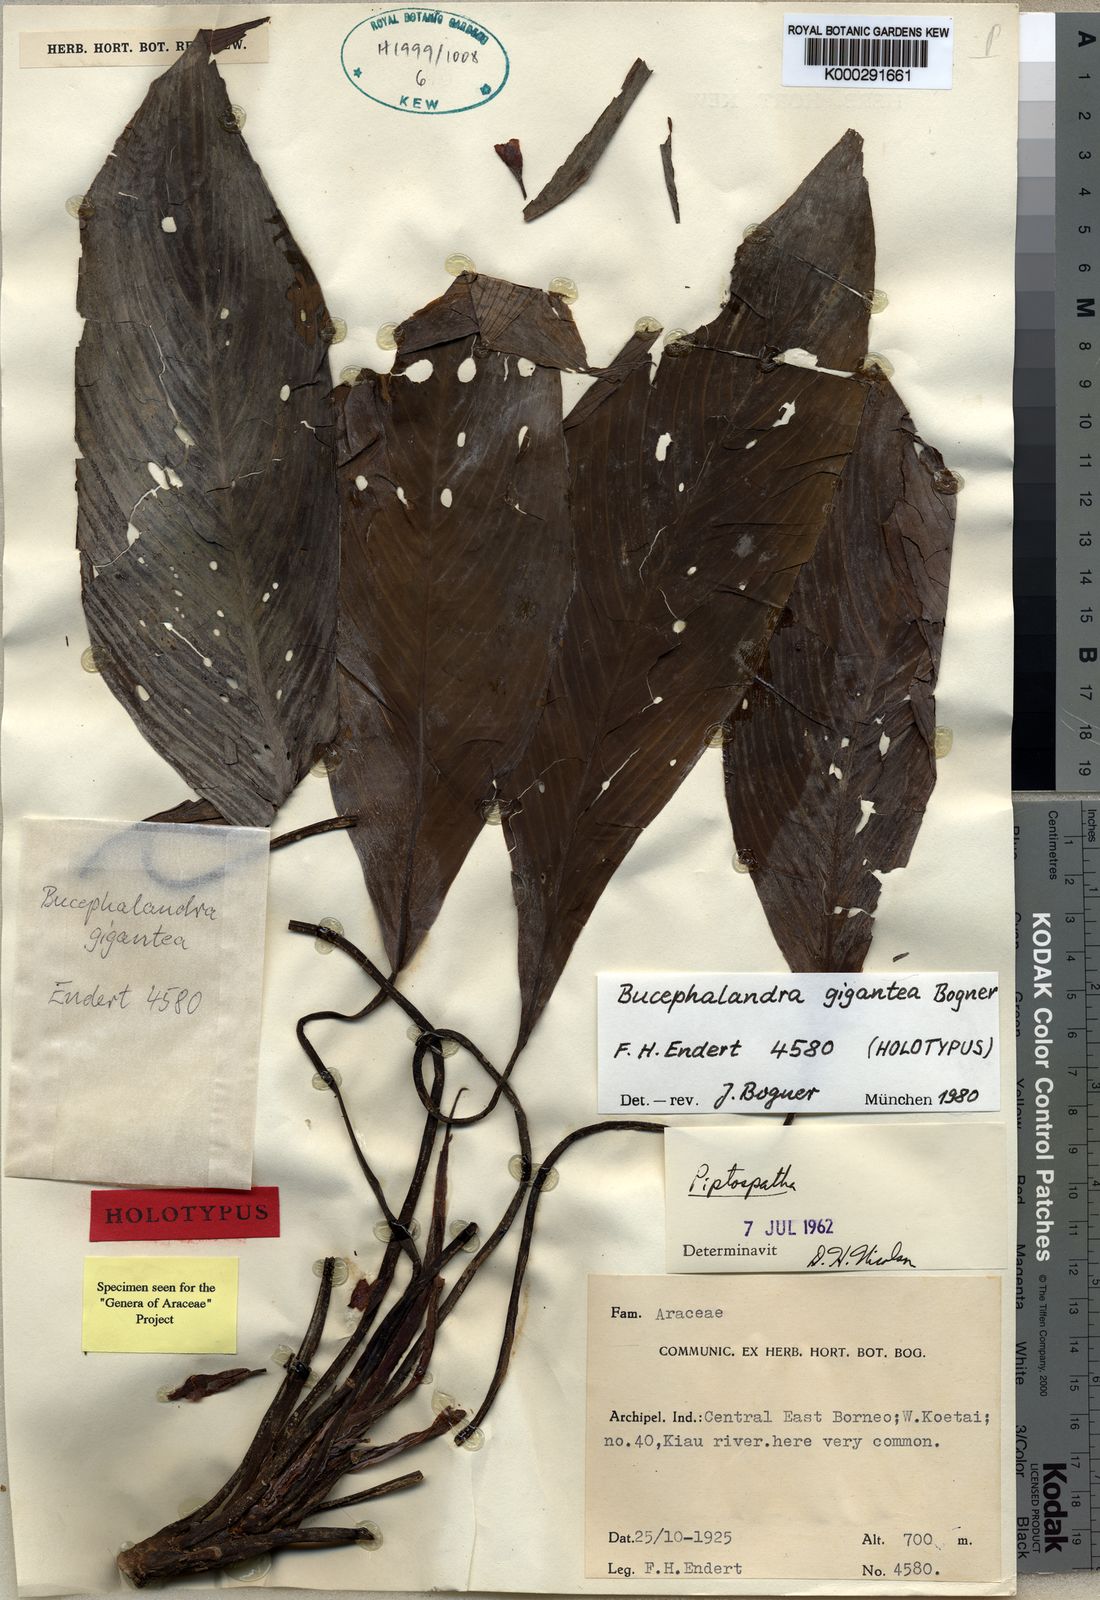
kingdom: Plantae
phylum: Tracheophyta
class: Liliopsida
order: Alismatales
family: Araceae
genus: Bucephalandra
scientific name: Bucephalandra gigantea
